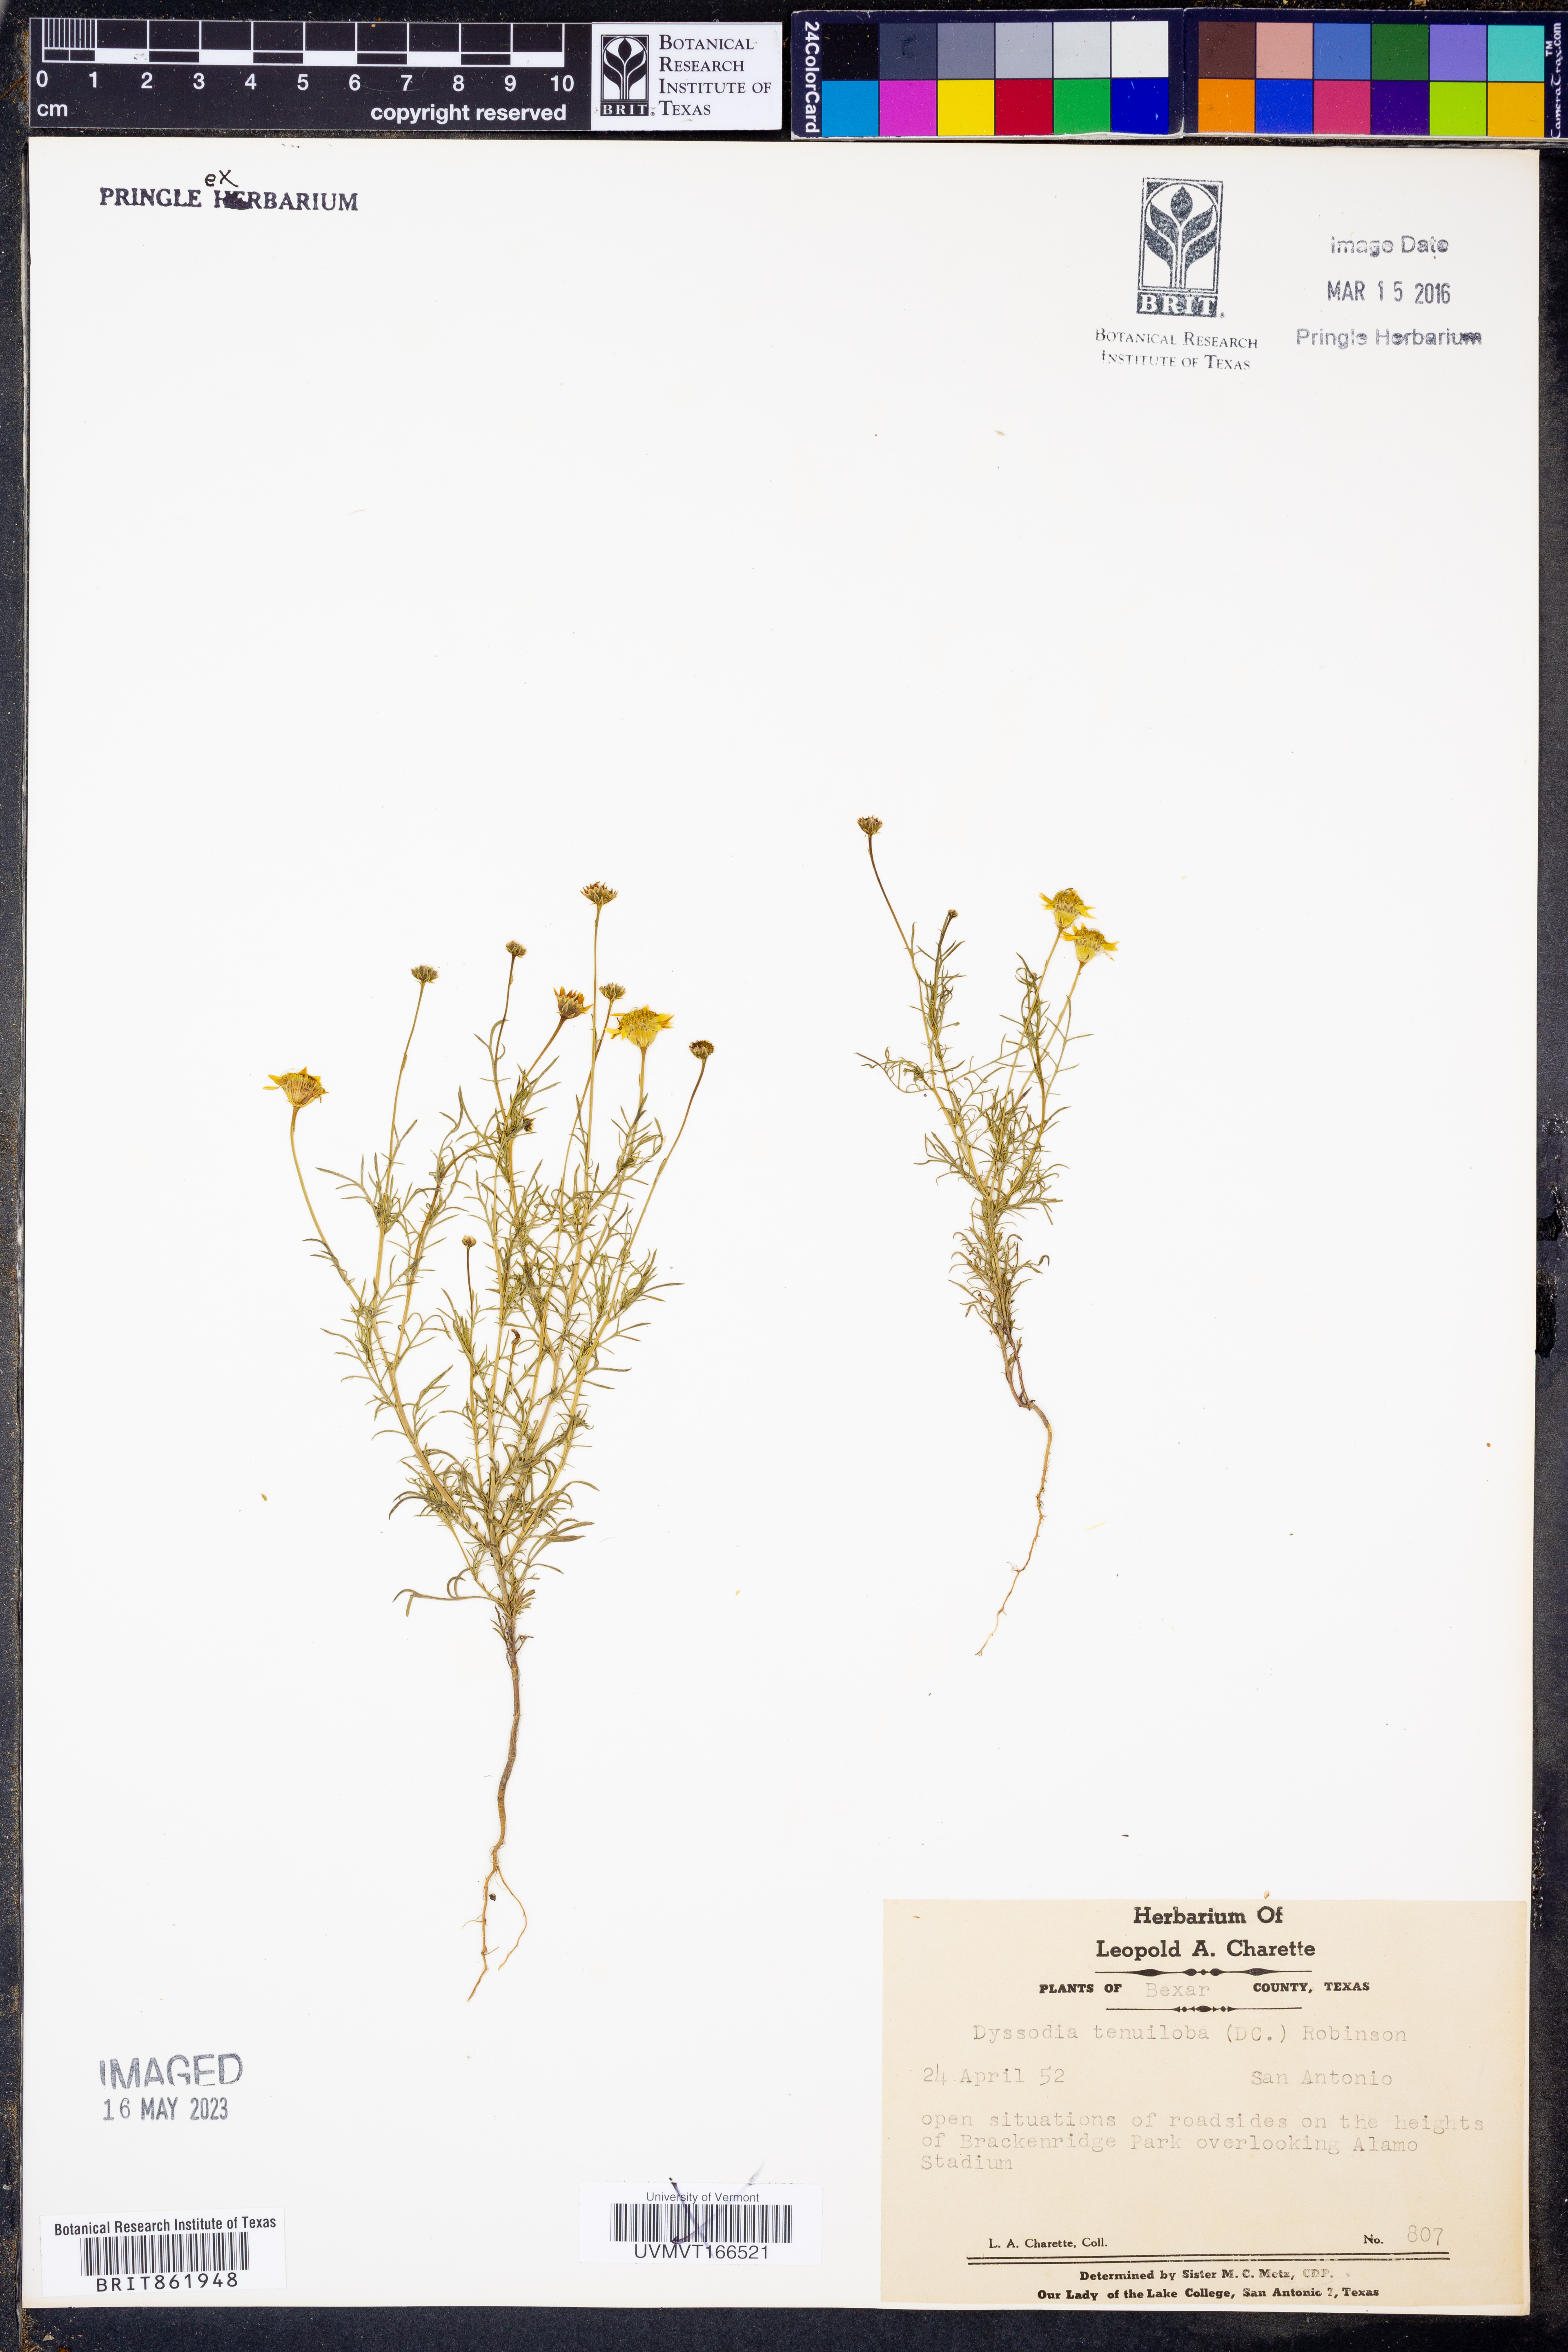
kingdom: Plantae
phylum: Tracheophyta
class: Magnoliopsida
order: Asterales
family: Asteraceae
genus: Thymophylla
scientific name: Thymophylla tenuiloba
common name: Dahlberg's daisy
